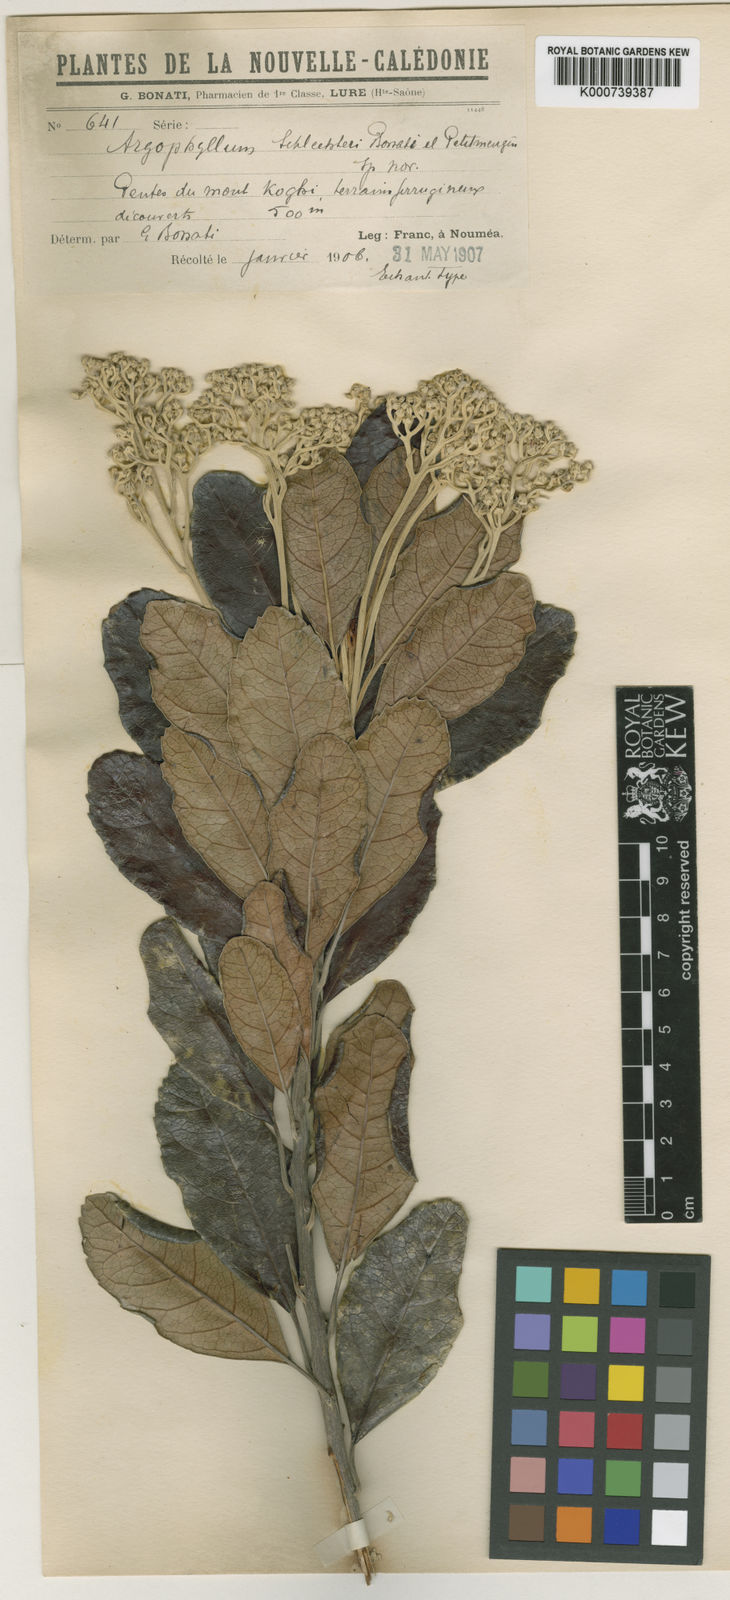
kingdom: Plantae
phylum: Tracheophyta
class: Magnoliopsida
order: Asterales
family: Argophyllaceae
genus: Argophyllum
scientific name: Argophyllum montanum
